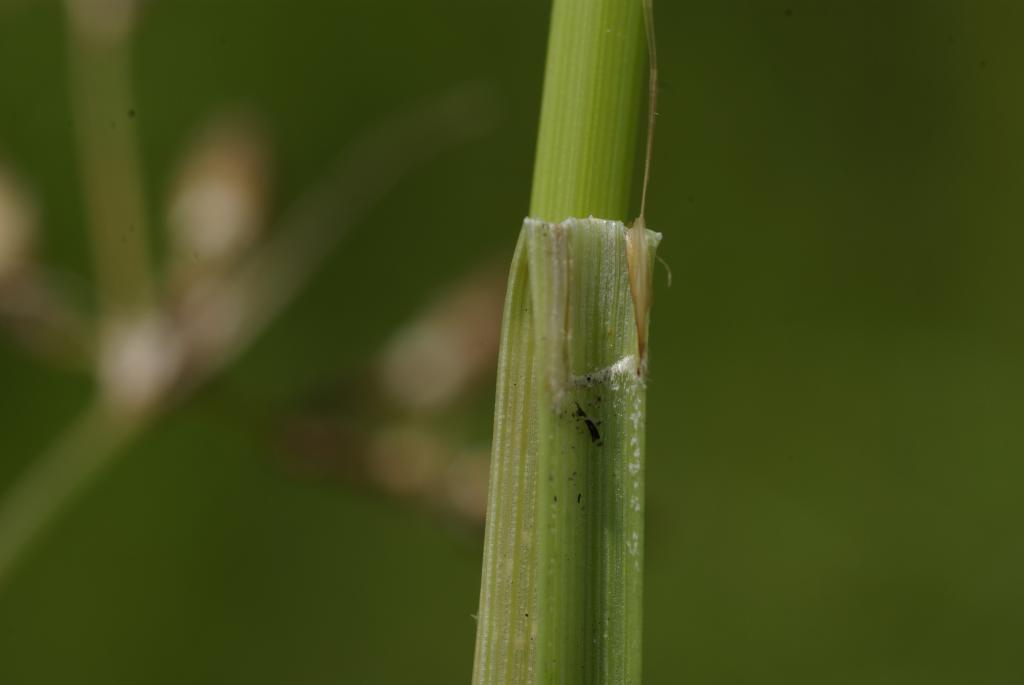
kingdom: Plantae
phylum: Tracheophyta
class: Liliopsida
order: Poales
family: Cyperaceae
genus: Fimbristylis
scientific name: Fimbristylis
